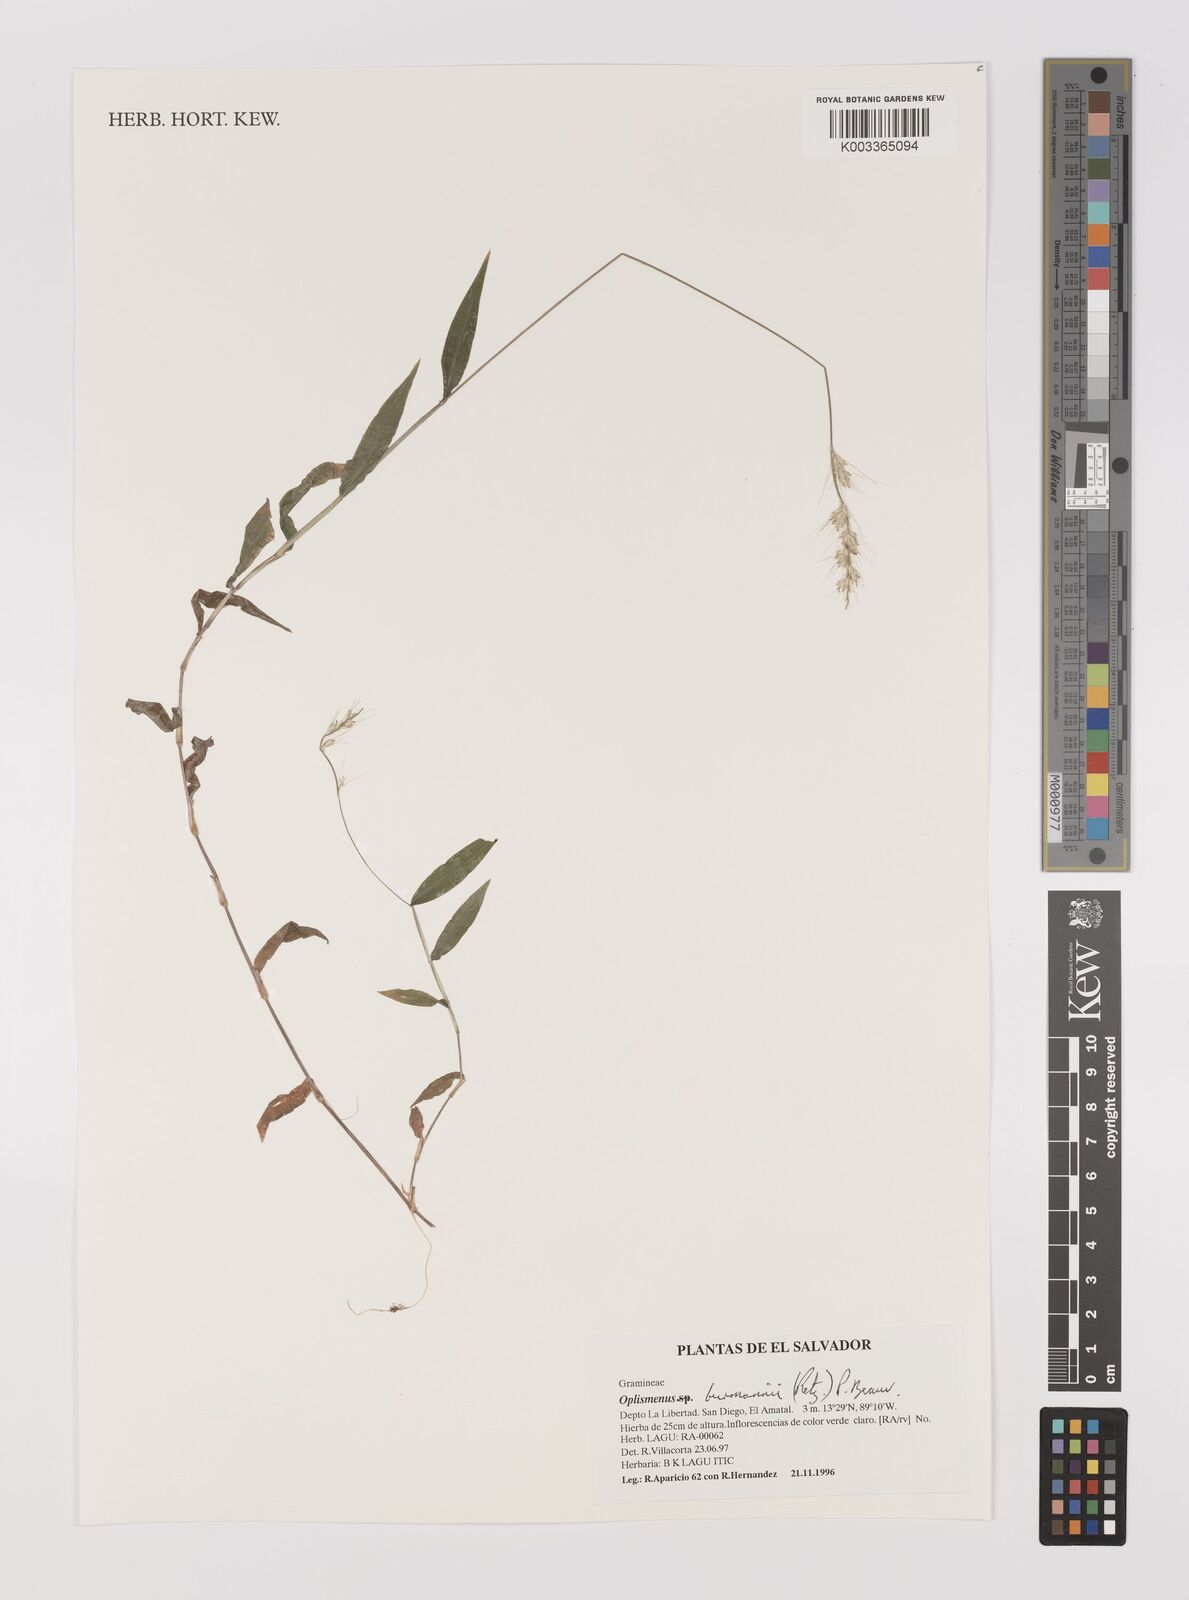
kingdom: Plantae
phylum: Tracheophyta
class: Liliopsida
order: Poales
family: Poaceae
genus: Oplismenus
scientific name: Oplismenus burmanni
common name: Burmann's basketgrass
